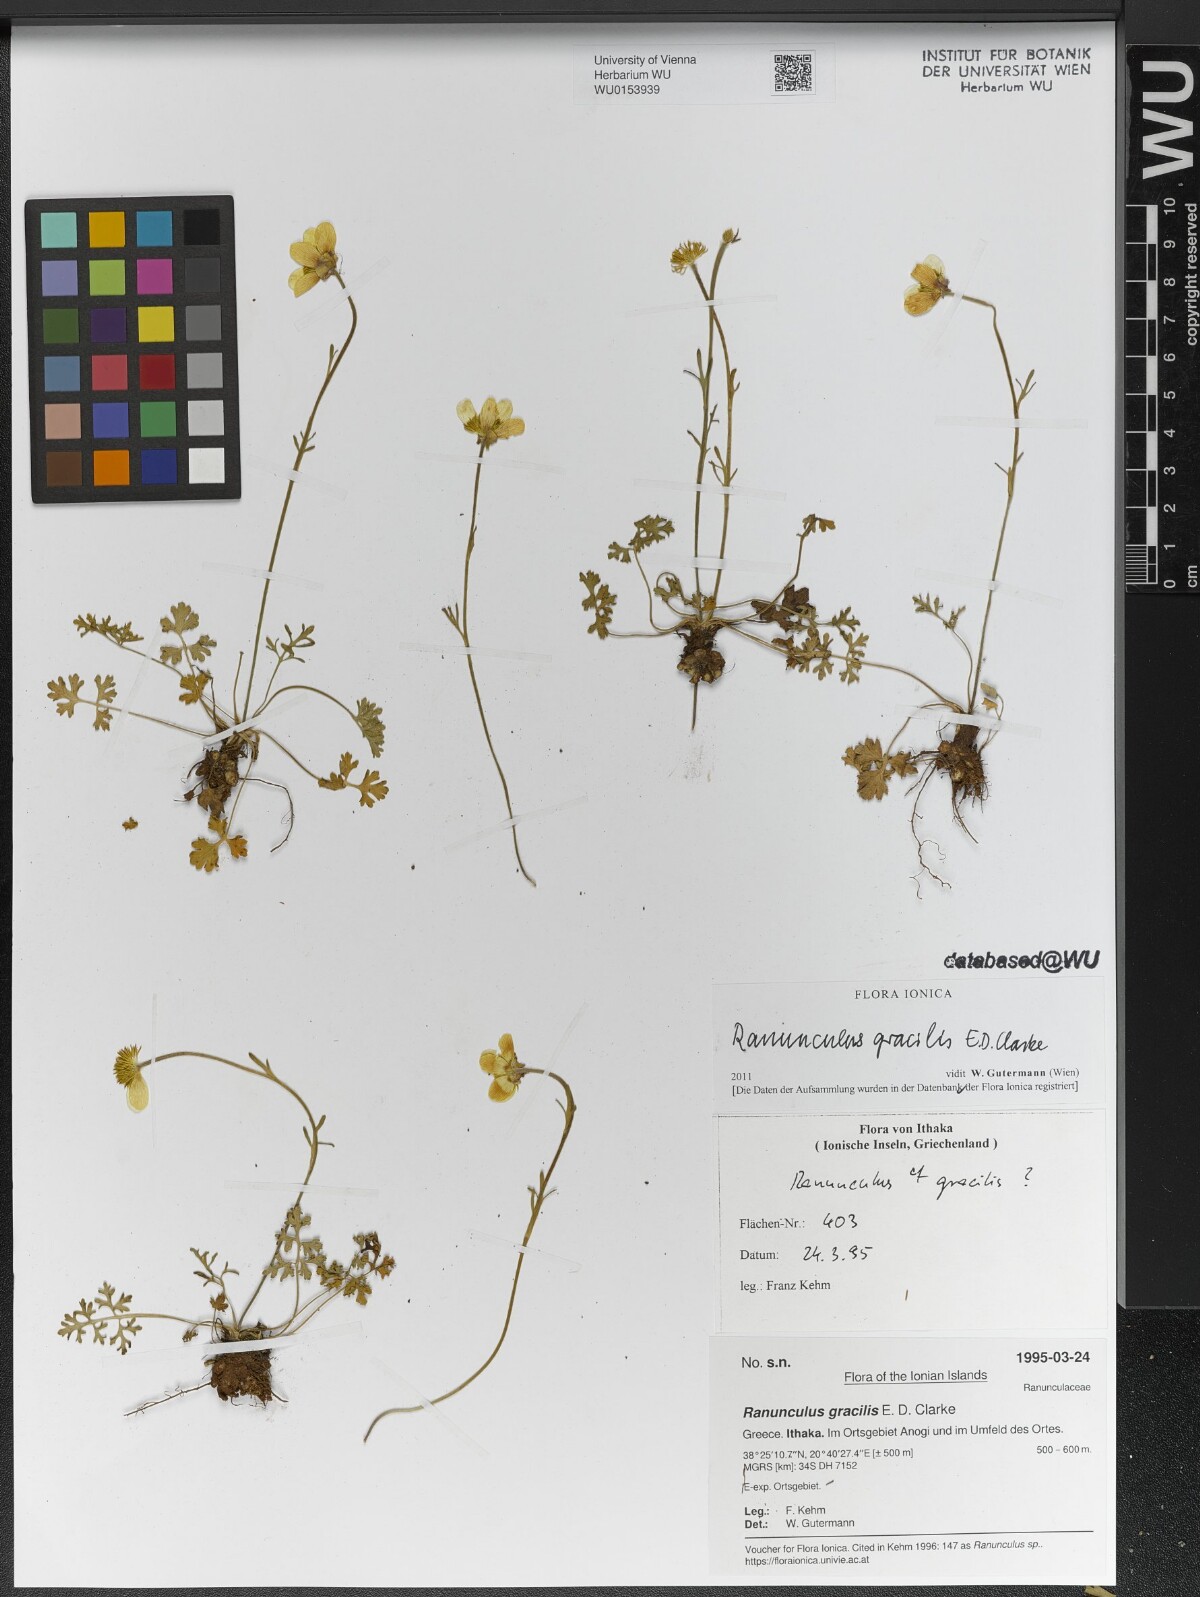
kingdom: Plantae
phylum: Tracheophyta
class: Magnoliopsida
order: Ranunculales
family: Ranunculaceae
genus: Ranunculus
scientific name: Ranunculus gracilis
